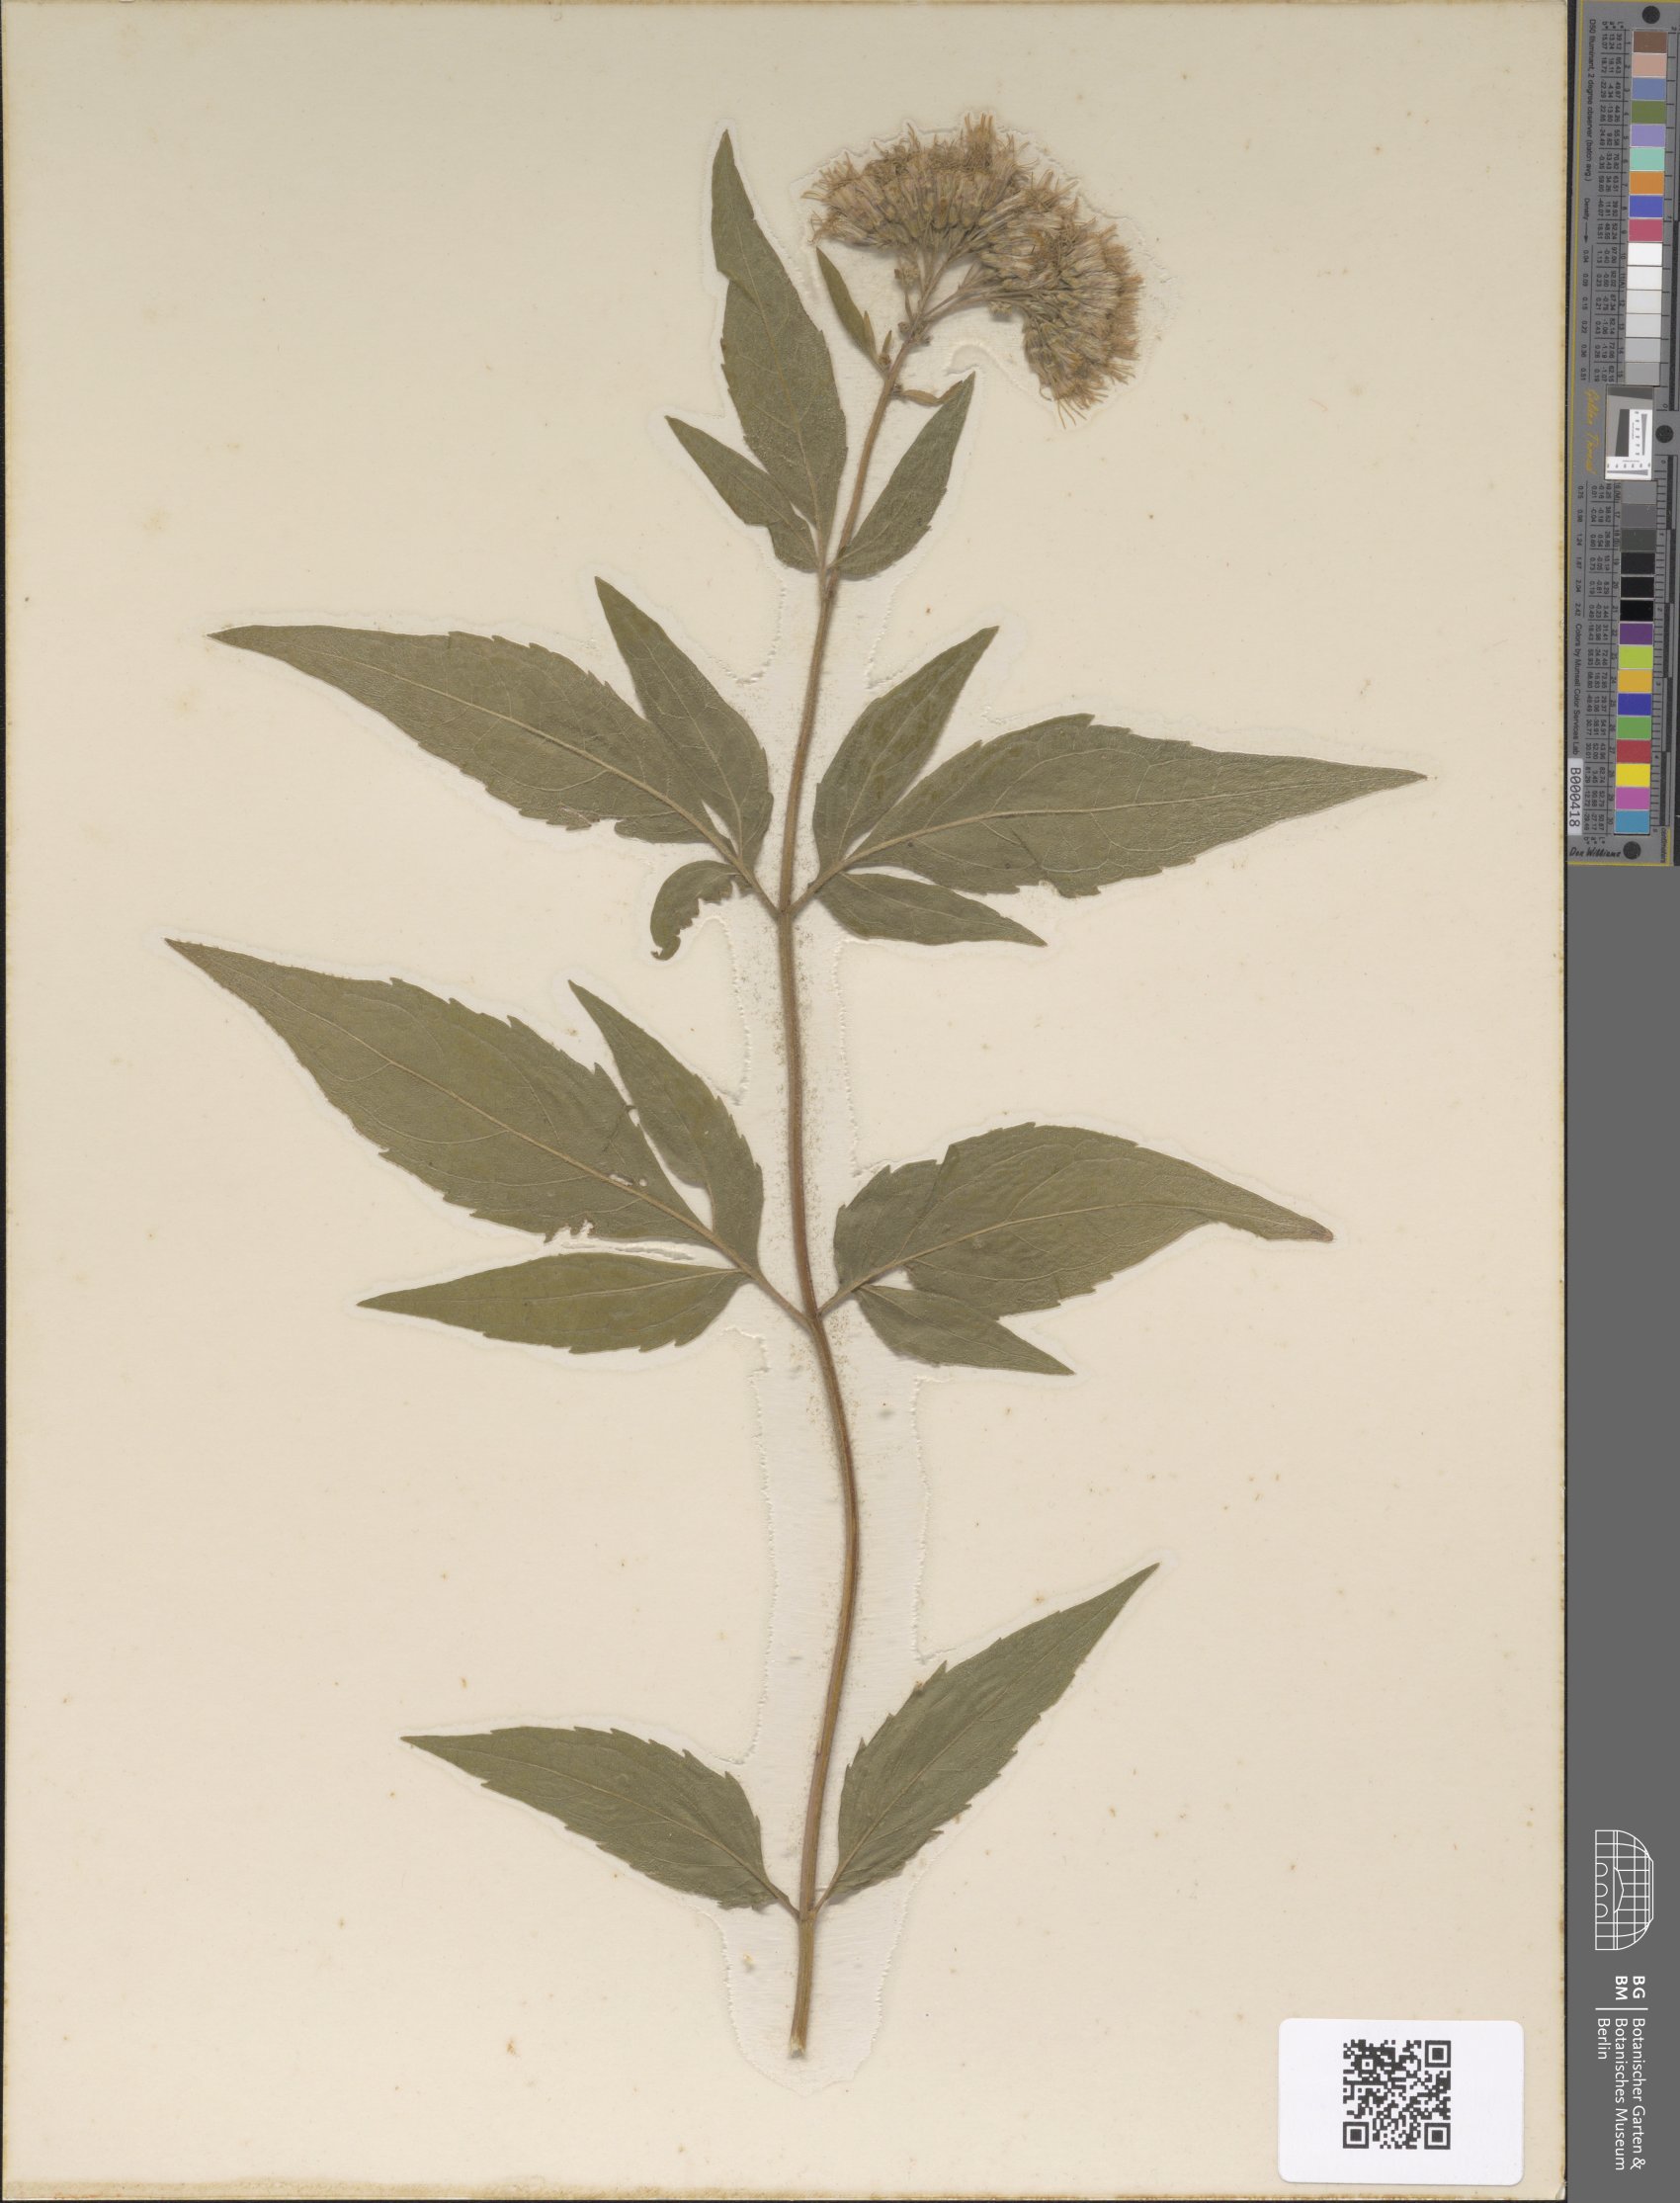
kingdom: Plantae
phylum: Tracheophyta
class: Magnoliopsida
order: Asterales
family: Asteraceae
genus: Eupatorium
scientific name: Eupatorium cannabinum
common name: Hemp-agrimony
